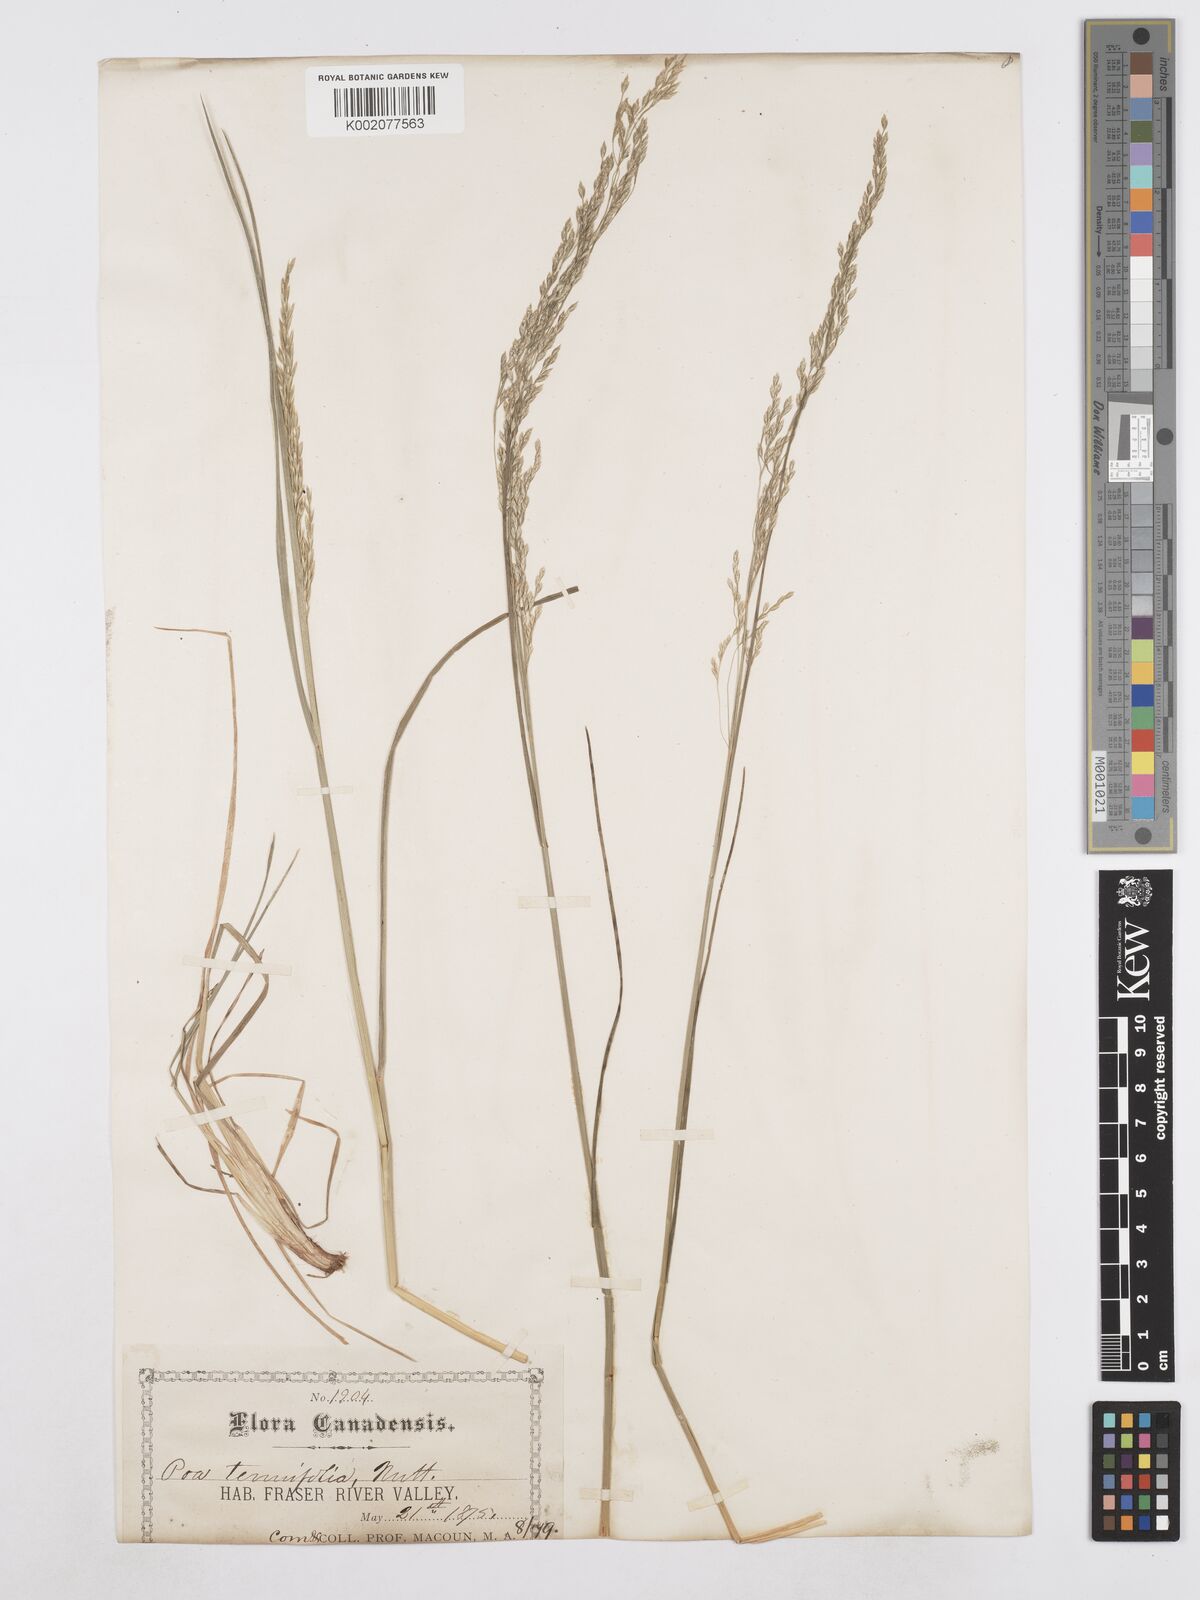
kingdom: Plantae
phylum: Tracheophyta
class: Liliopsida
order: Poales
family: Poaceae
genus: Poa
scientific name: Poa secunda
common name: Sandberg bluegrass
